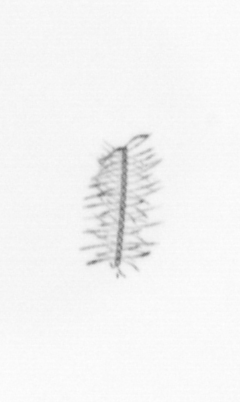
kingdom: Chromista
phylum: Ochrophyta
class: Bacillariophyceae
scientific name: Bacillariophyceae
